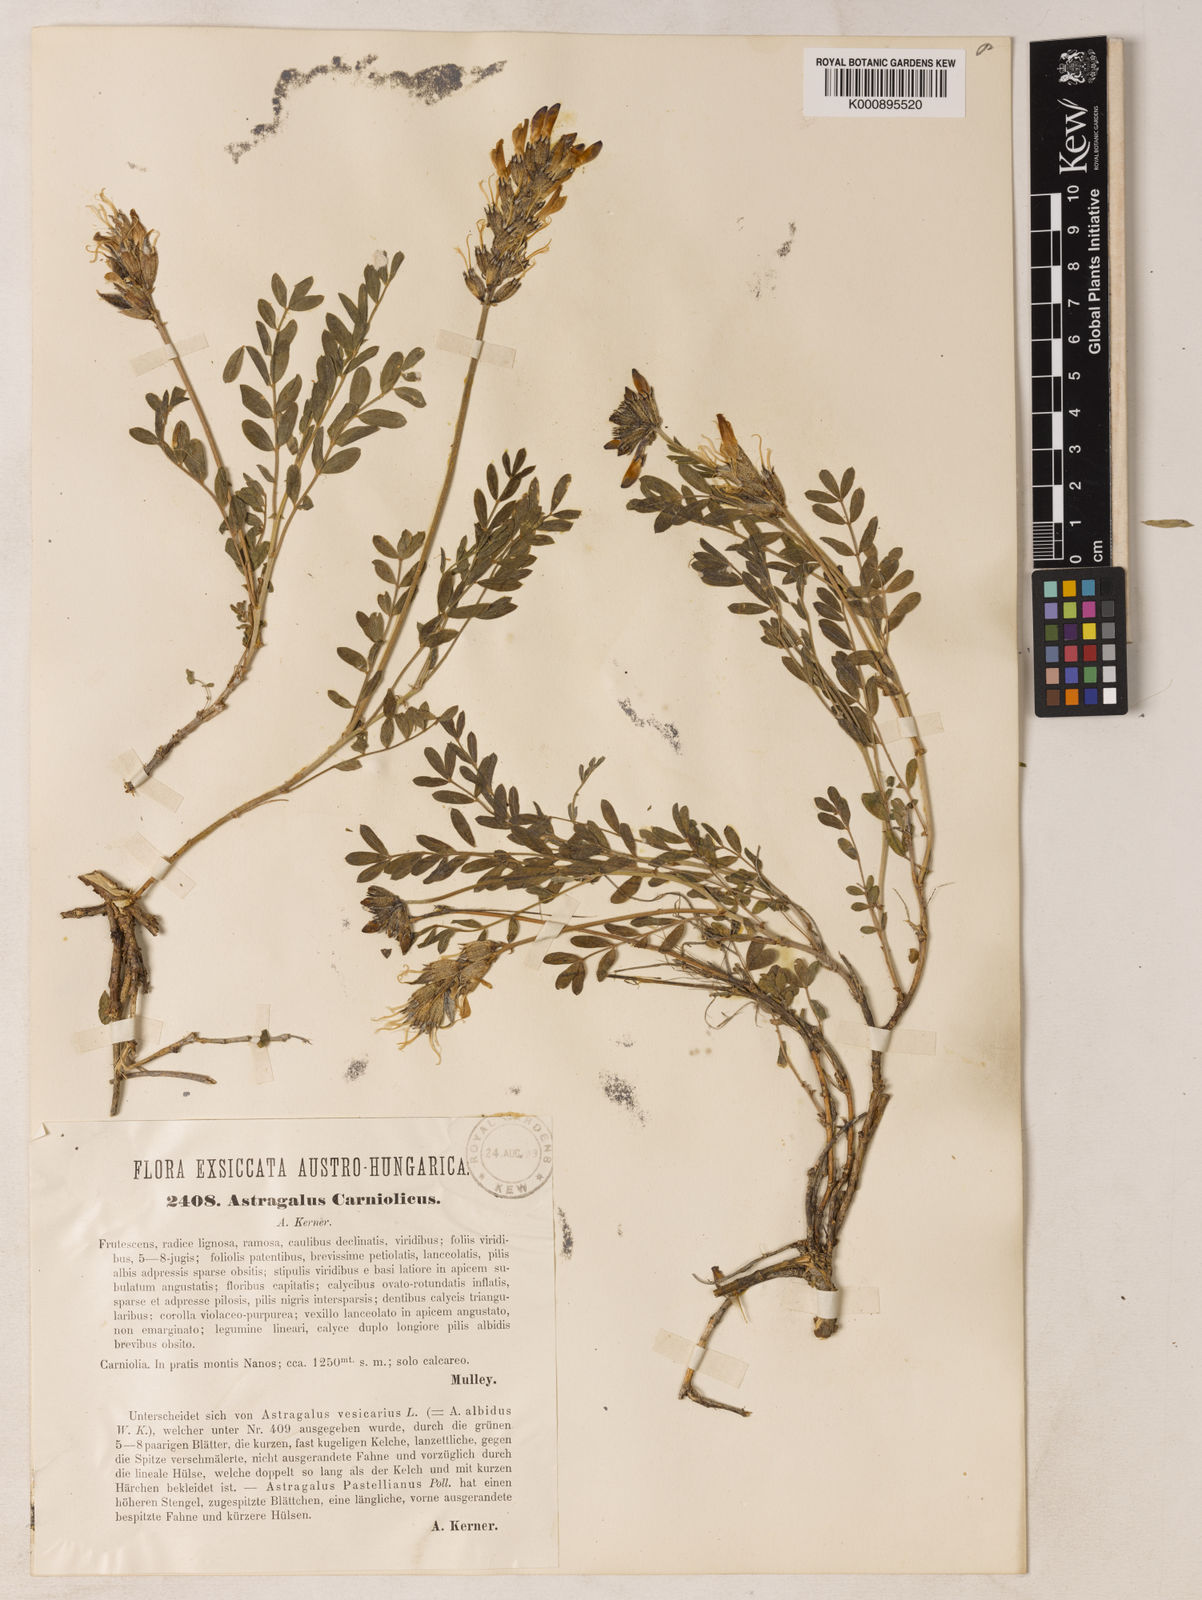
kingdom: Plantae
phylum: Tracheophyta
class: Magnoliopsida
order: Fabales
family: Fabaceae
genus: Astragalus
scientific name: Astragalus vesicarius
